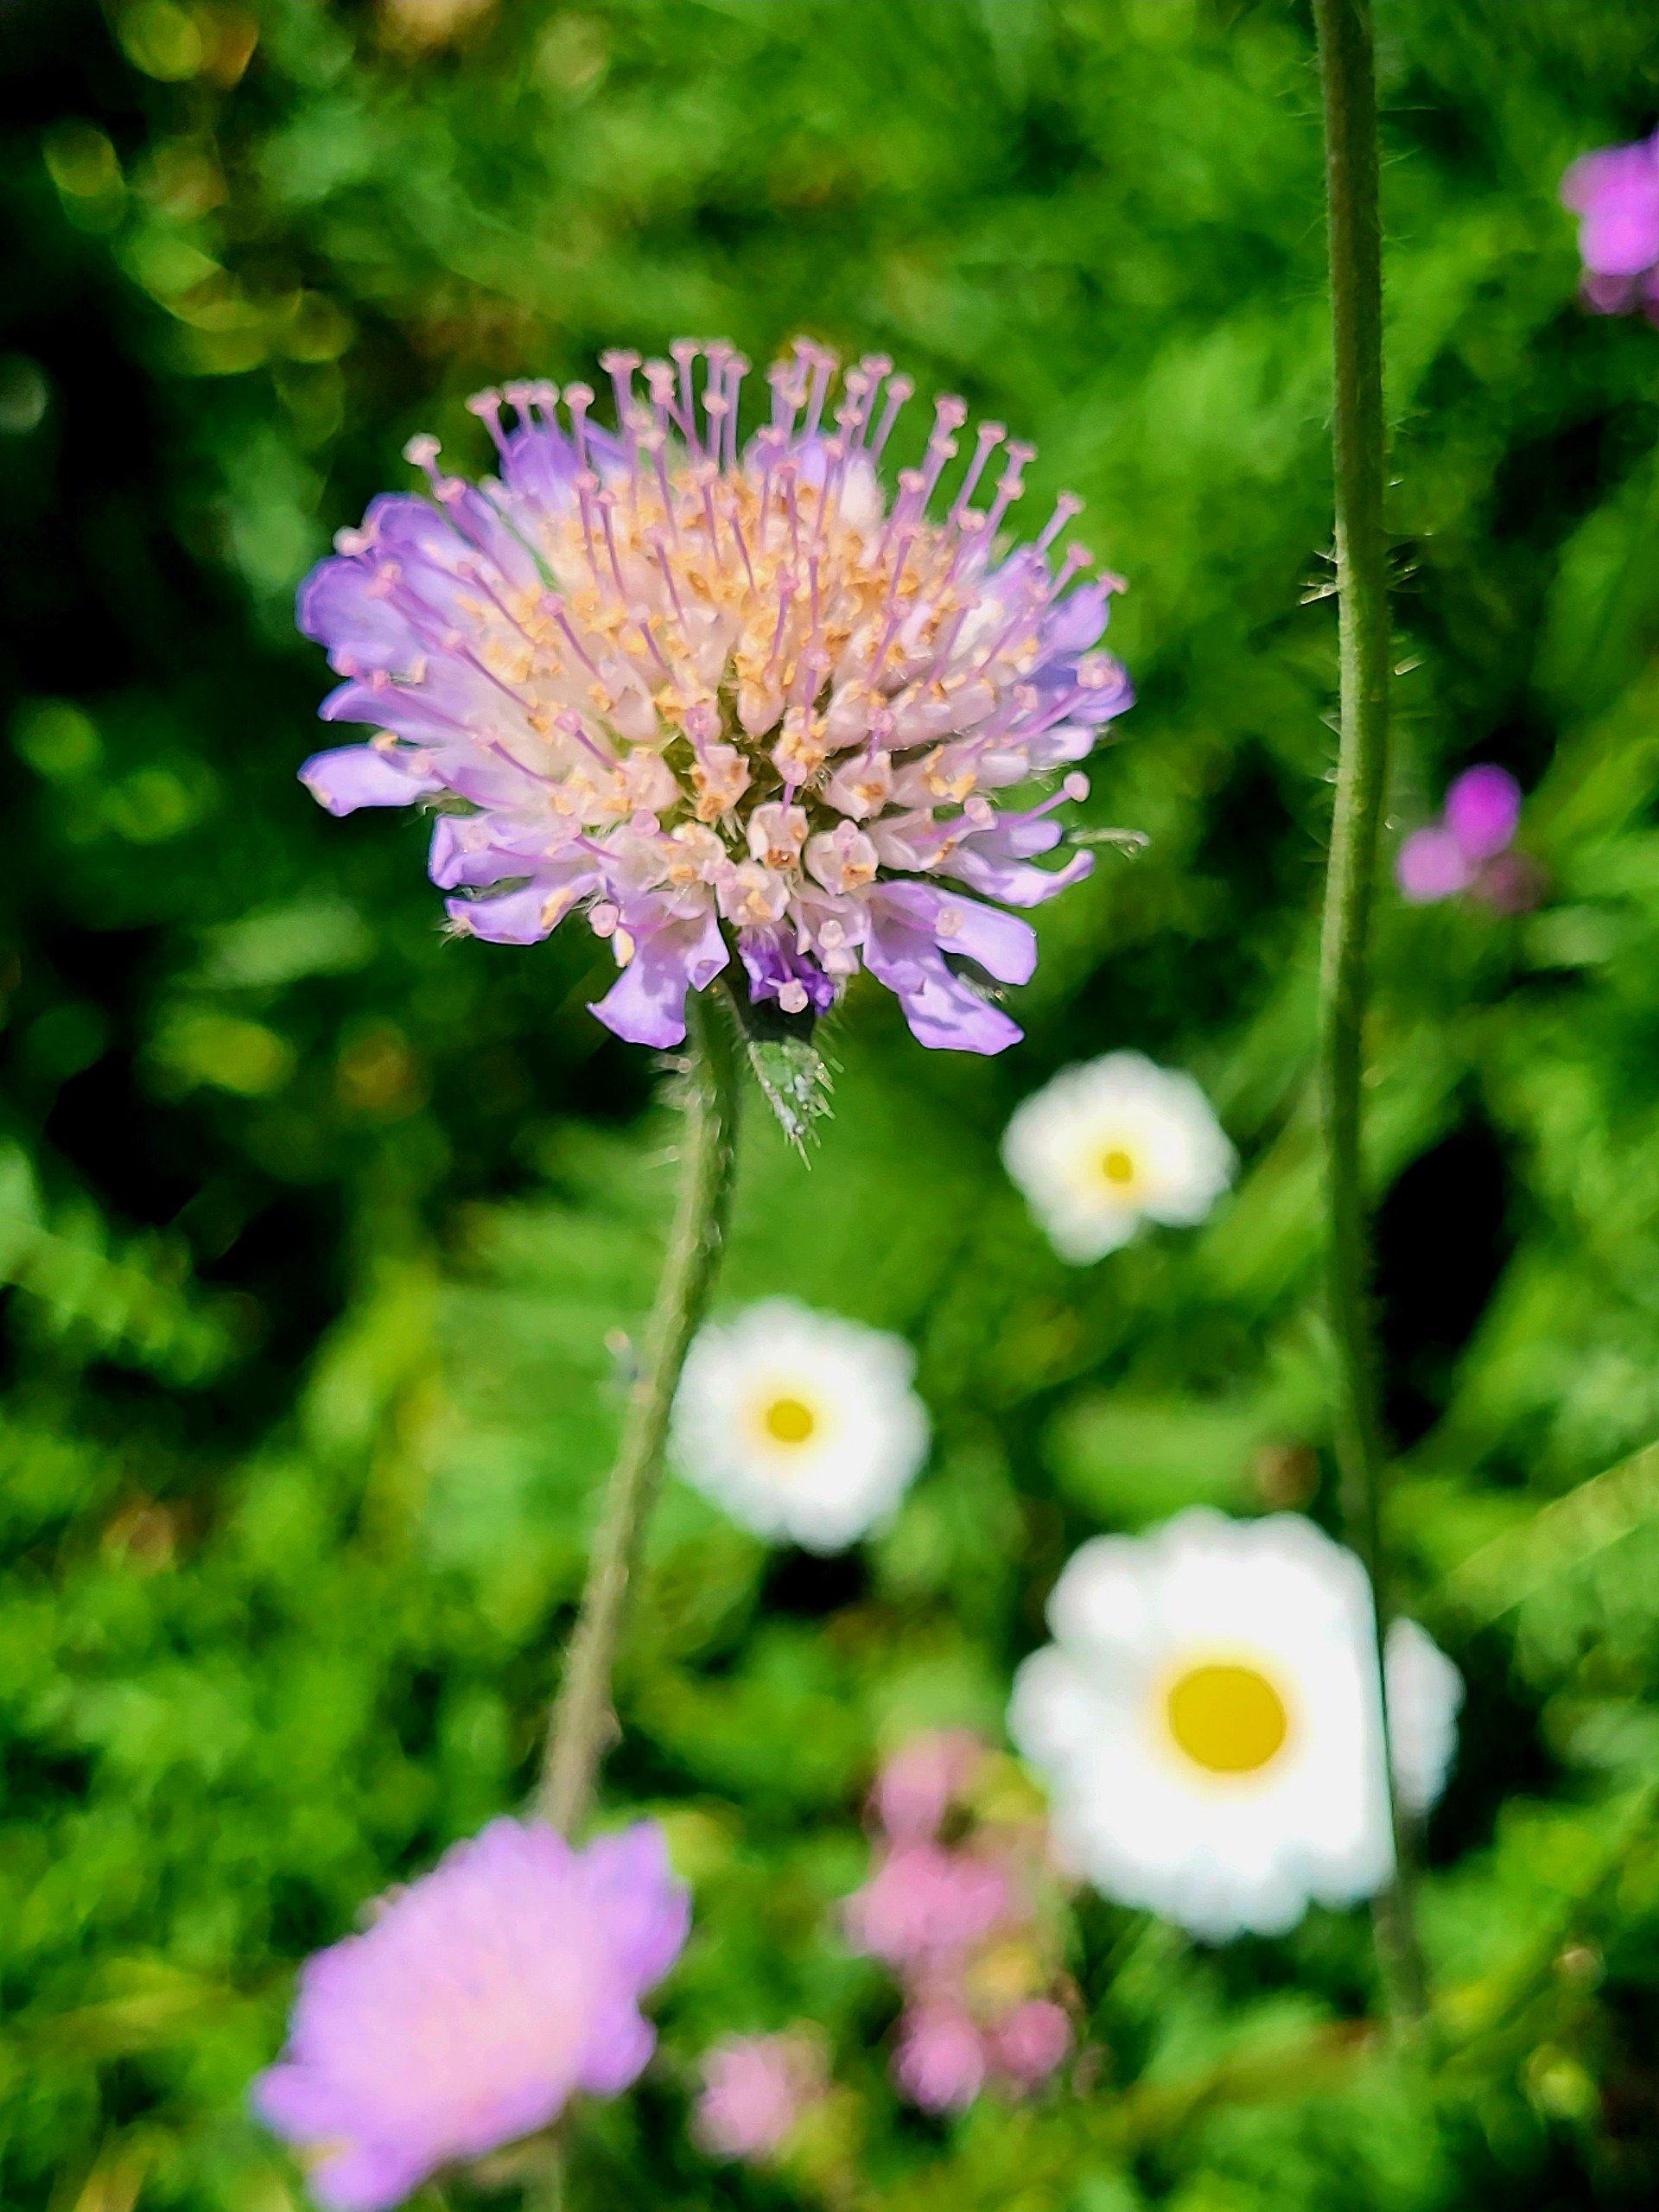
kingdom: Plantae
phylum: Tracheophyta
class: Magnoliopsida
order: Dipsacales
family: Caprifoliaceae
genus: Knautia
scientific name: Knautia arvensis
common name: Blåhat
